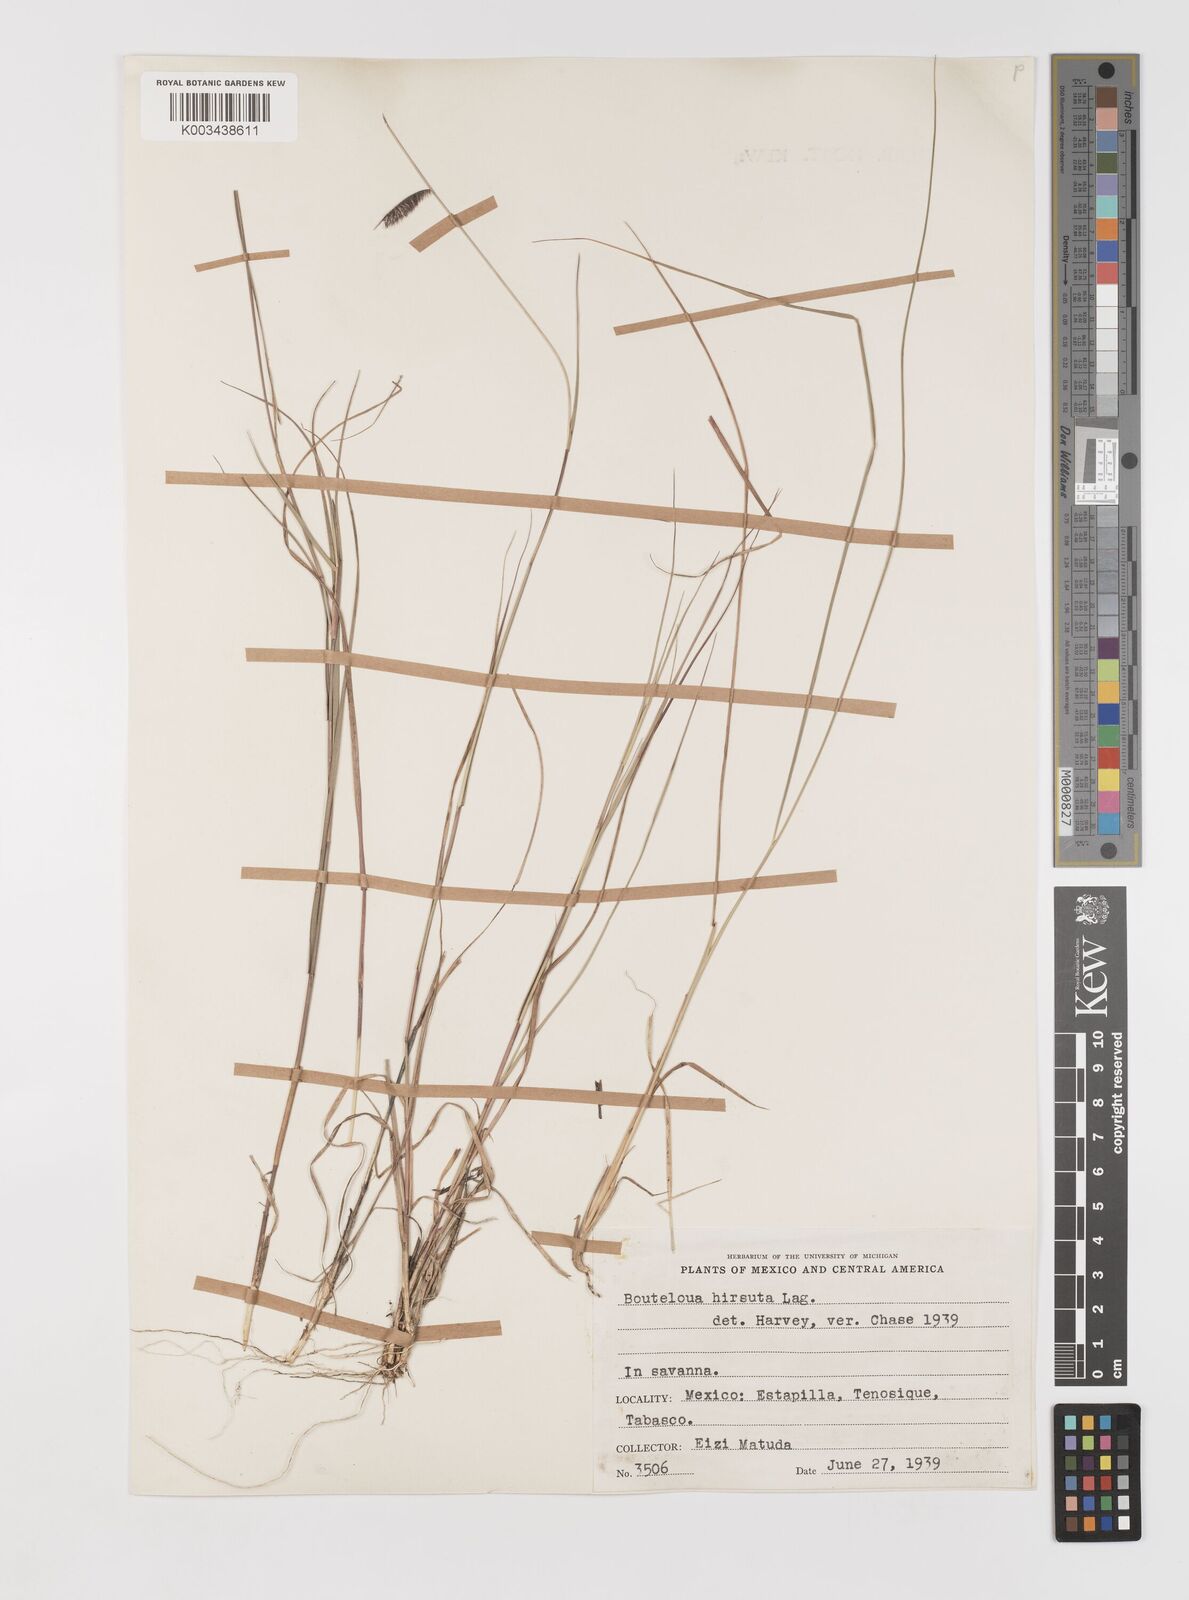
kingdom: Plantae
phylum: Tracheophyta
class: Liliopsida
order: Poales
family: Poaceae
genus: Bouteloua
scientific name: Bouteloua hirsuta
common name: Hairy grama
